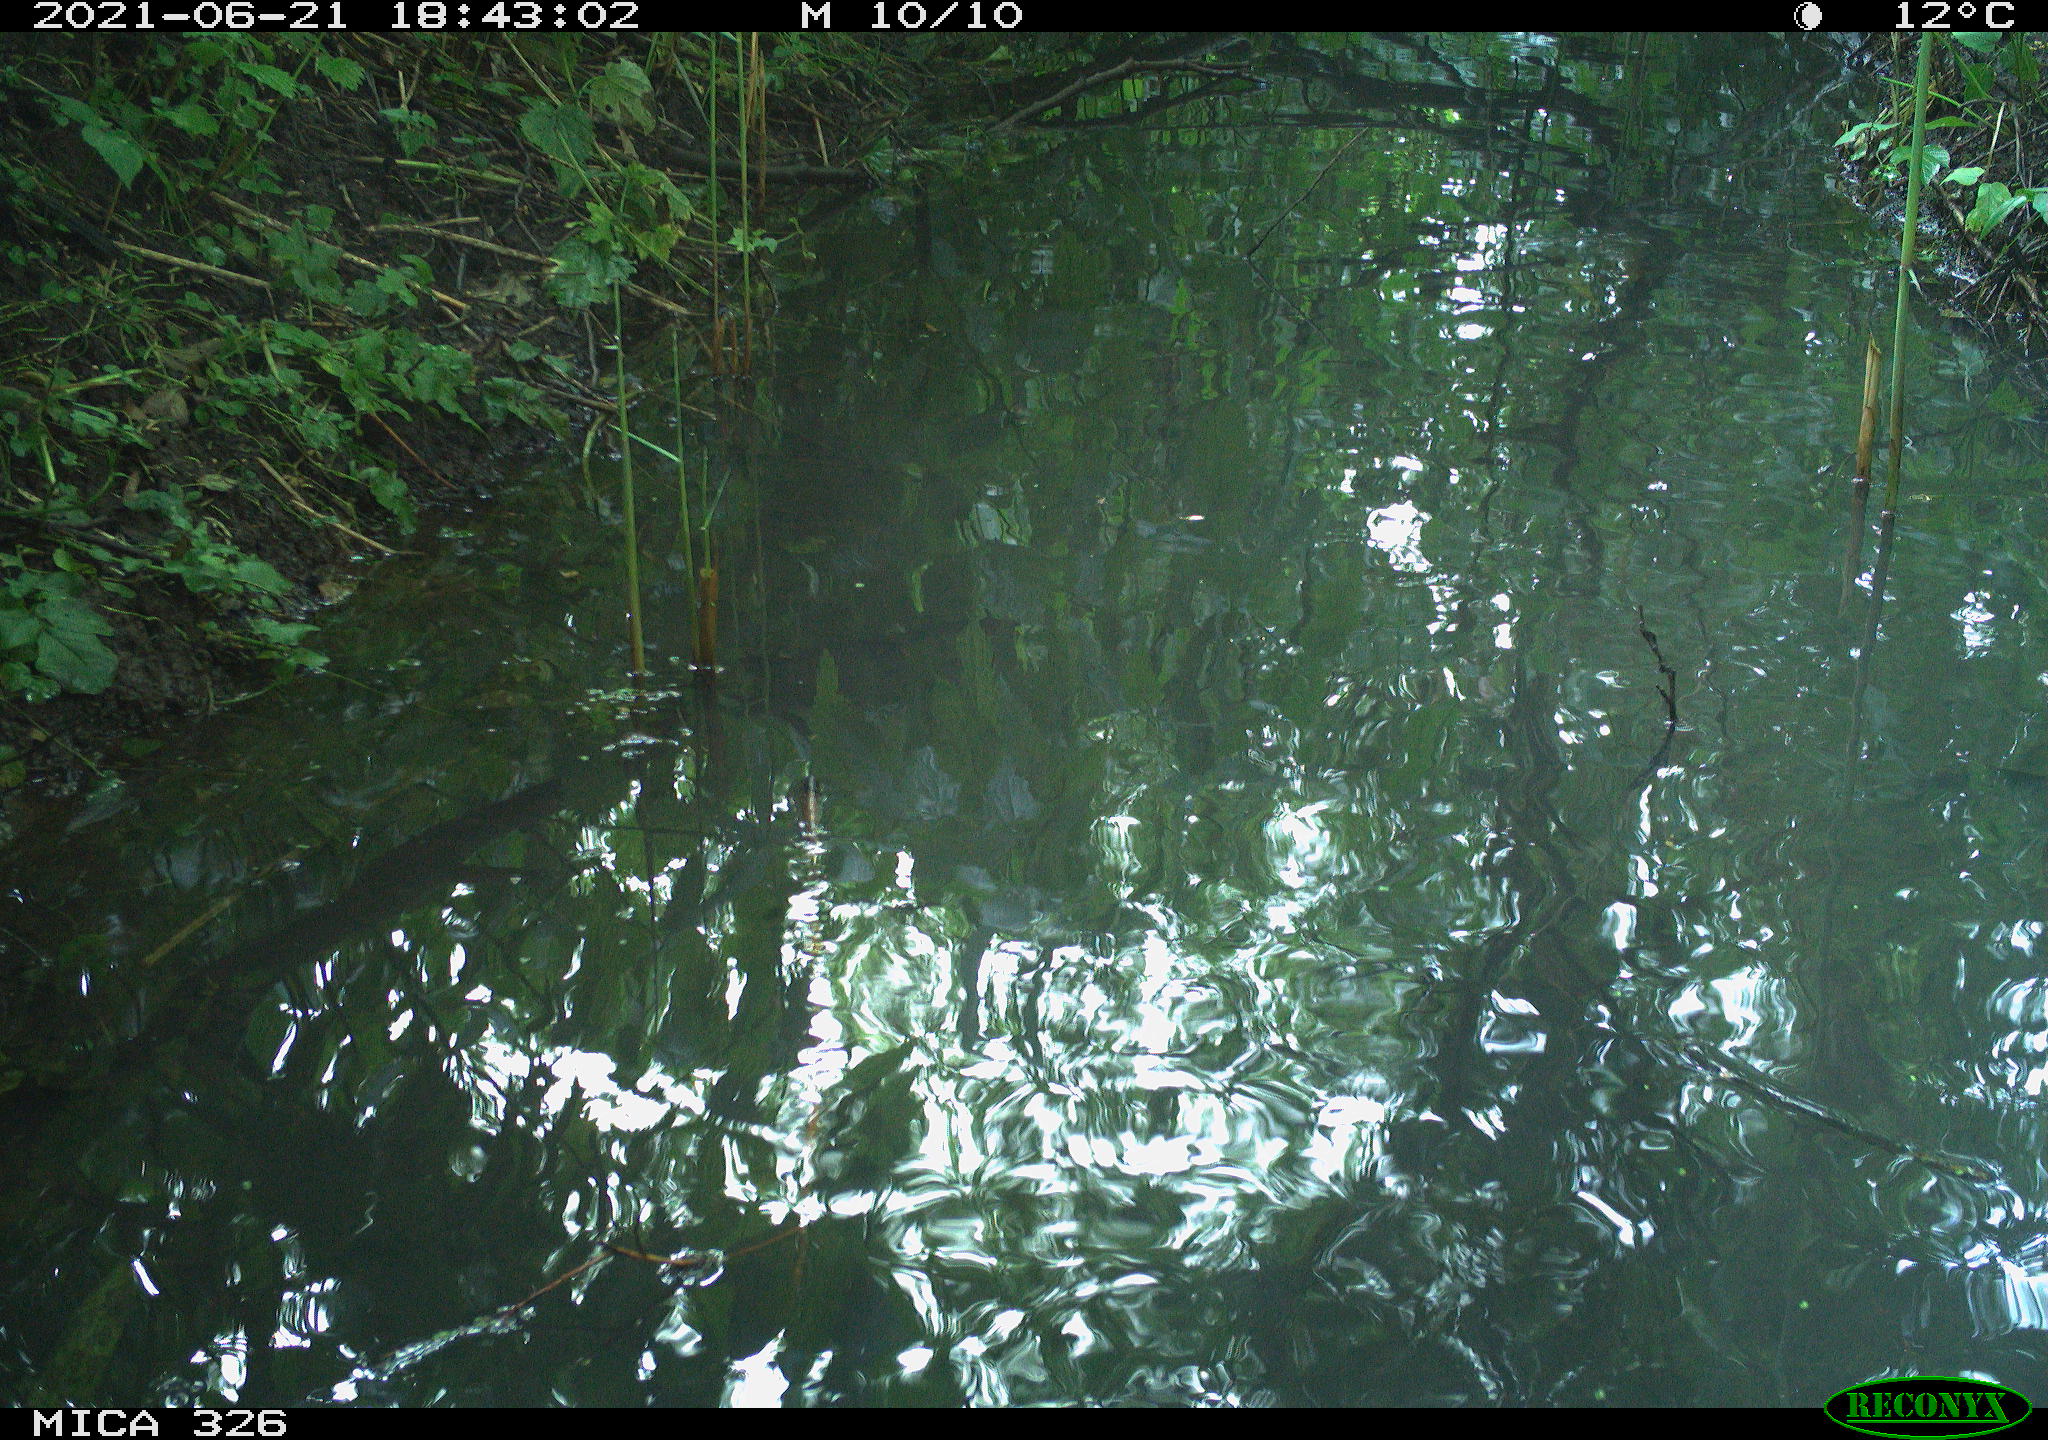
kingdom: Animalia
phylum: Chordata
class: Aves
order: Anseriformes
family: Anatidae
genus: Anas
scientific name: Anas platyrhynchos
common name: Mallard
